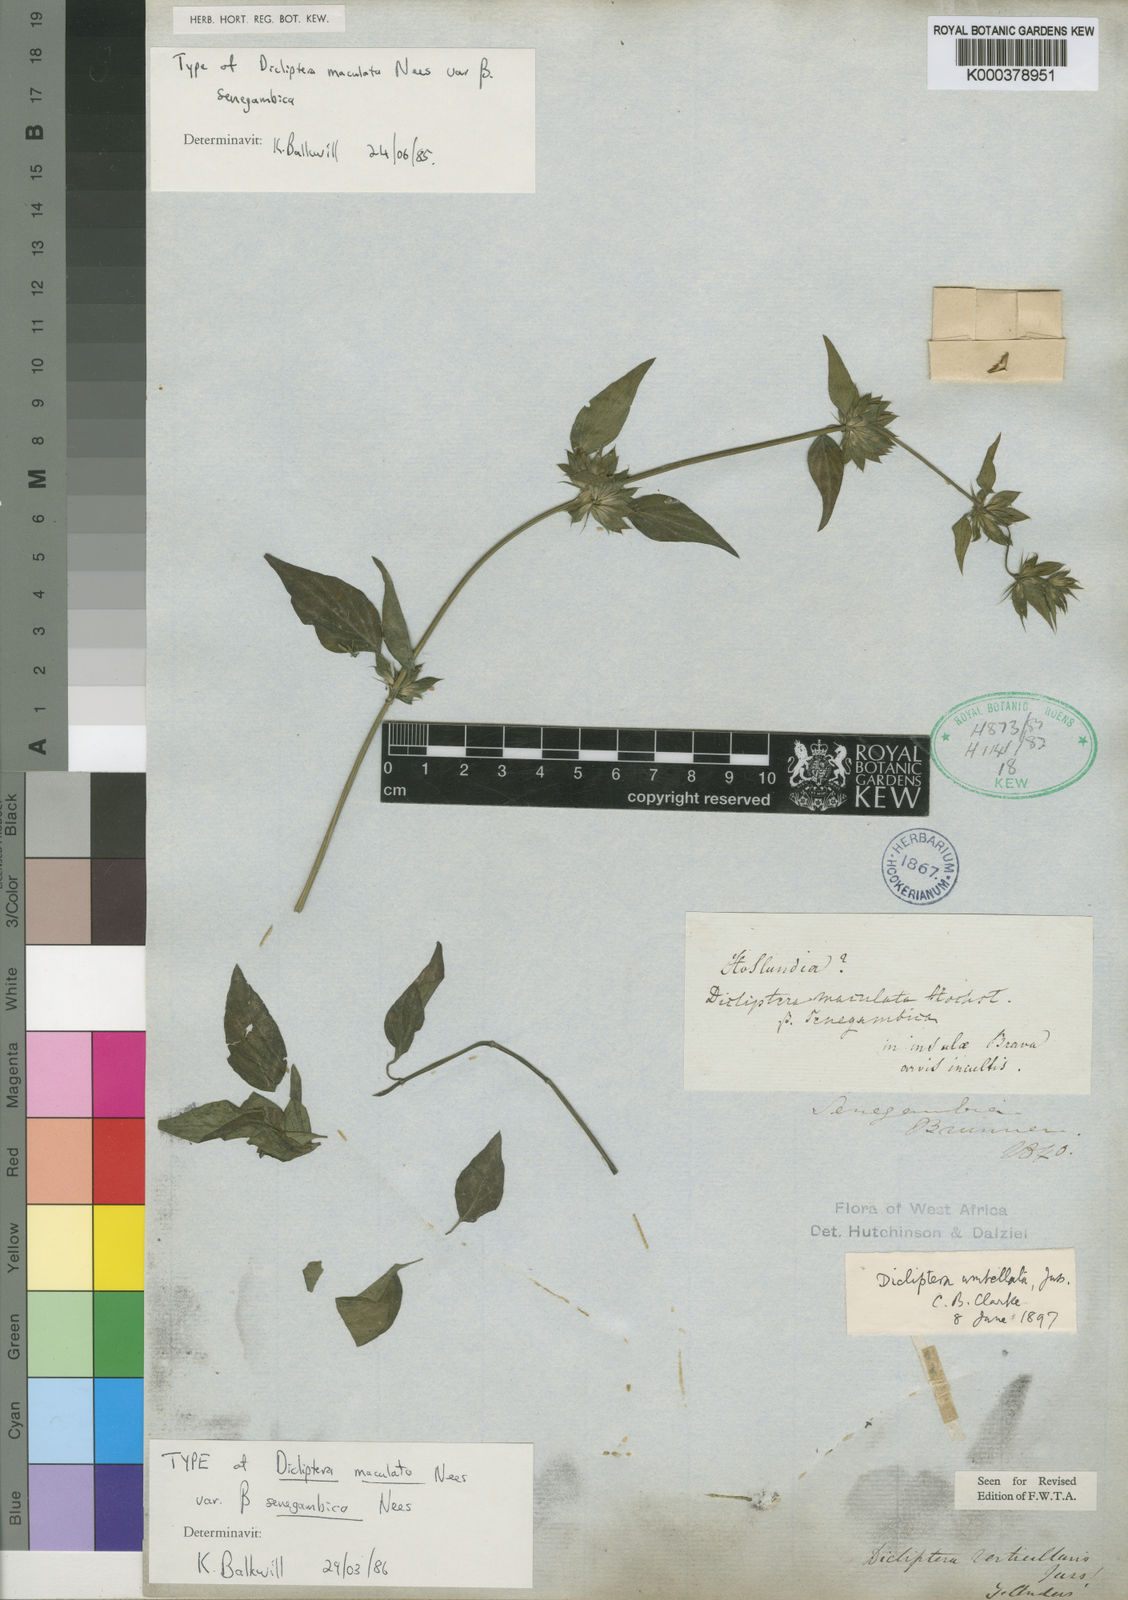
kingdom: Plantae
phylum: Tracheophyta
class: Magnoliopsida
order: Lamiales
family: Acanthaceae
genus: Dicliptera
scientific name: Dicliptera maculata
